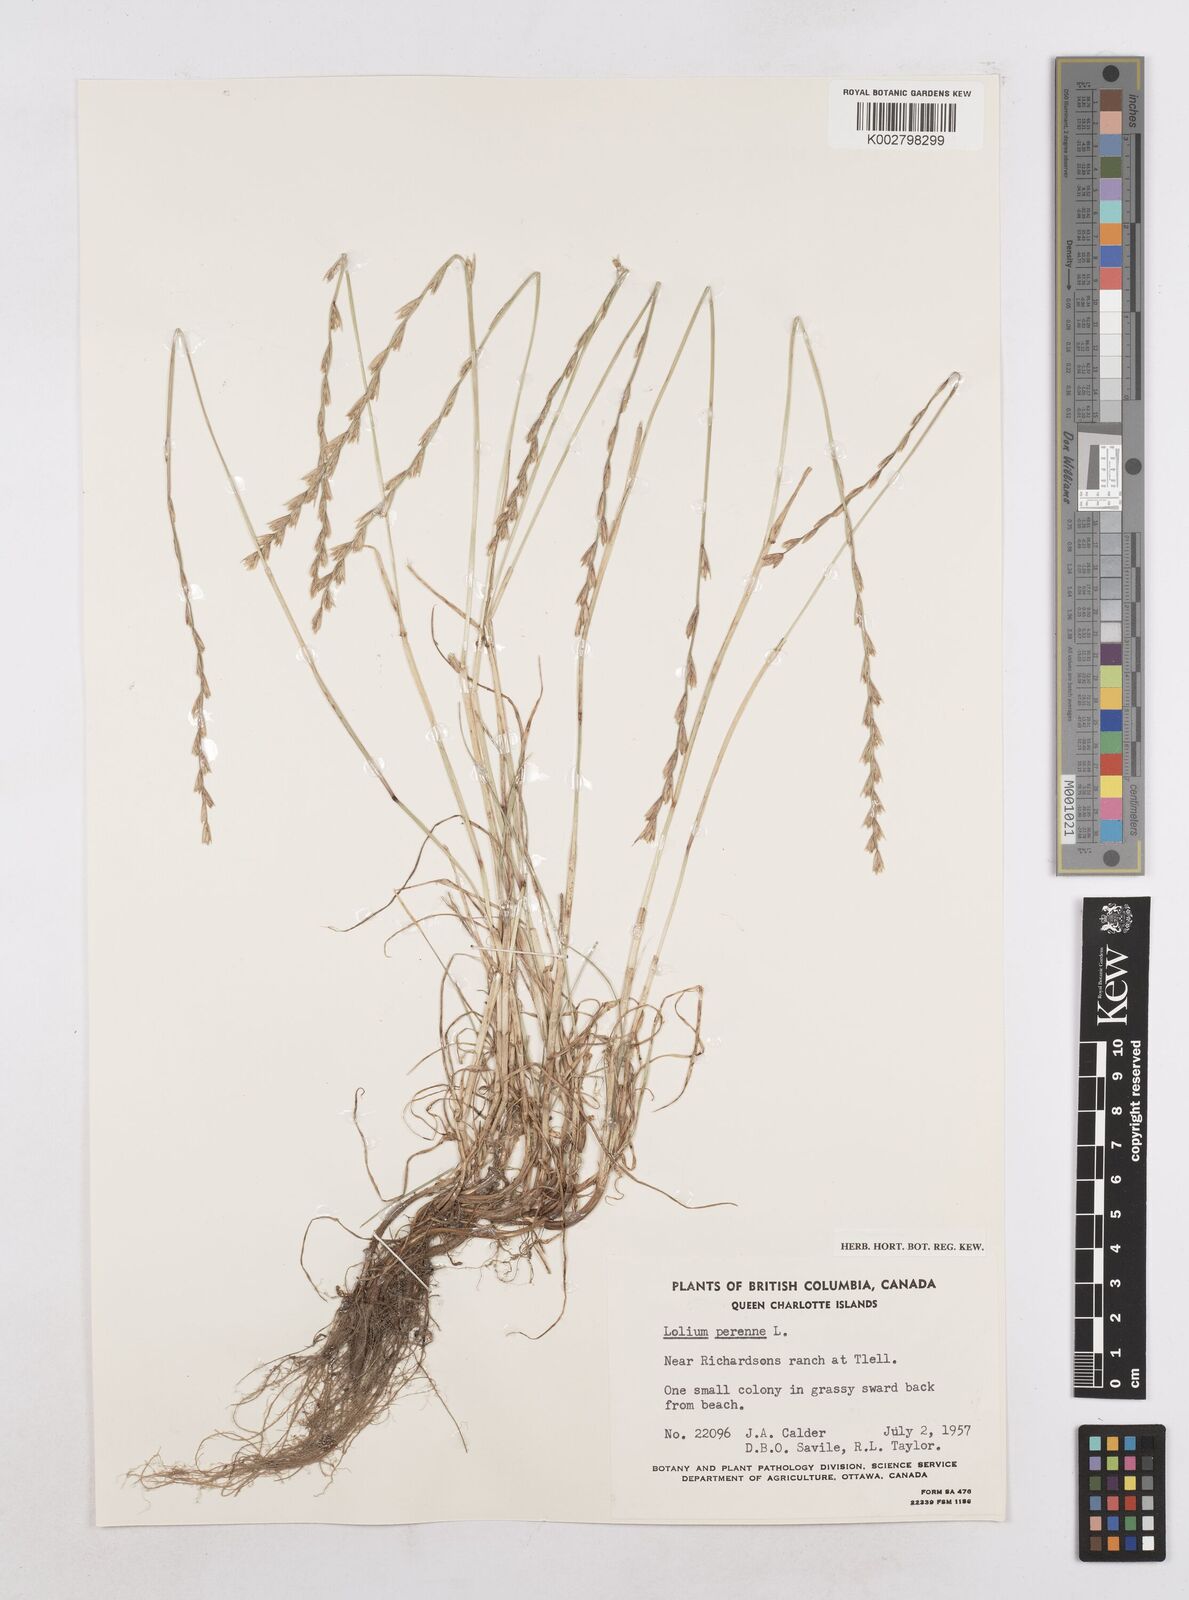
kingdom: Plantae
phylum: Tracheophyta
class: Liliopsida
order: Poales
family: Poaceae
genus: Lolium
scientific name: Lolium perenne
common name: Perennial ryegrass
